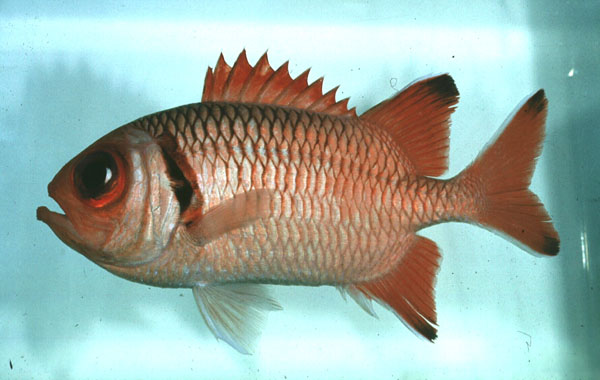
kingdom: Animalia
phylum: Chordata
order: Beryciformes
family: Holocentridae
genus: Myripristis
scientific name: Myripristis botche
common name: Blacktip soldierfish
